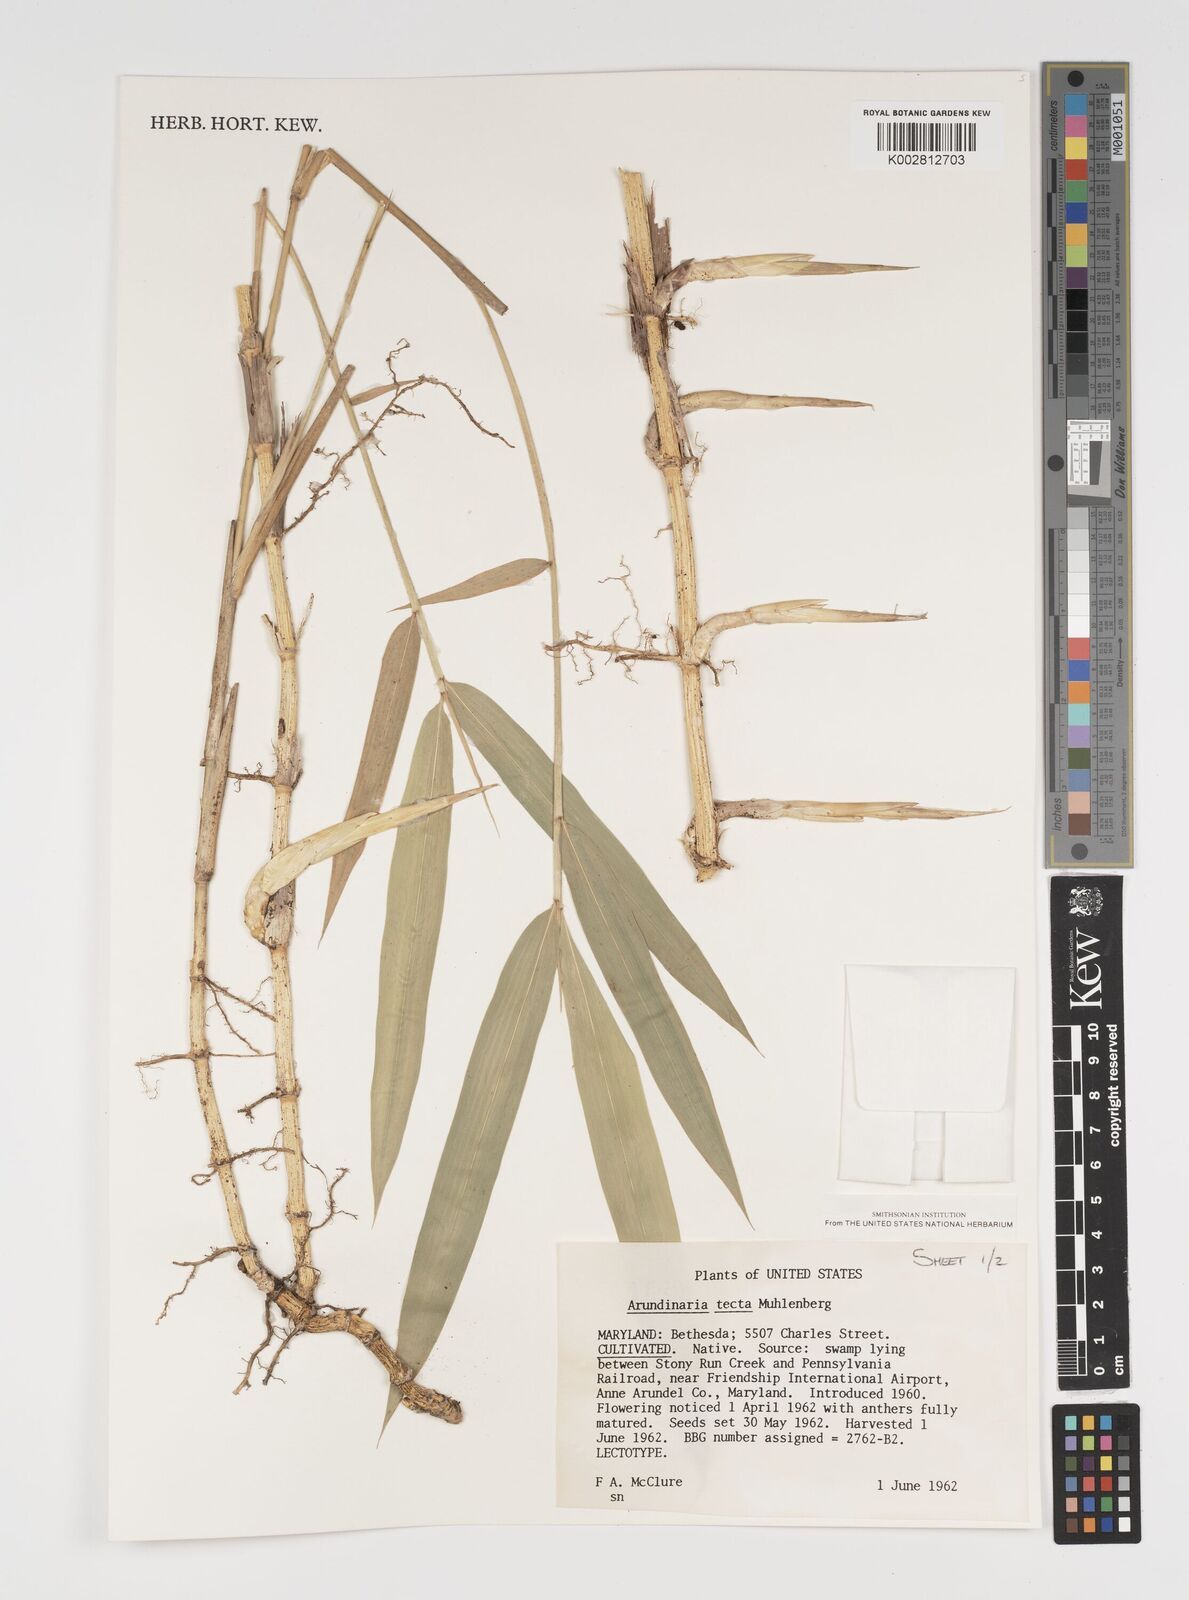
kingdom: Plantae
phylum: Tracheophyta
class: Liliopsida
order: Poales
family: Poaceae
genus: Arundinaria
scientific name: Arundinaria tecta
